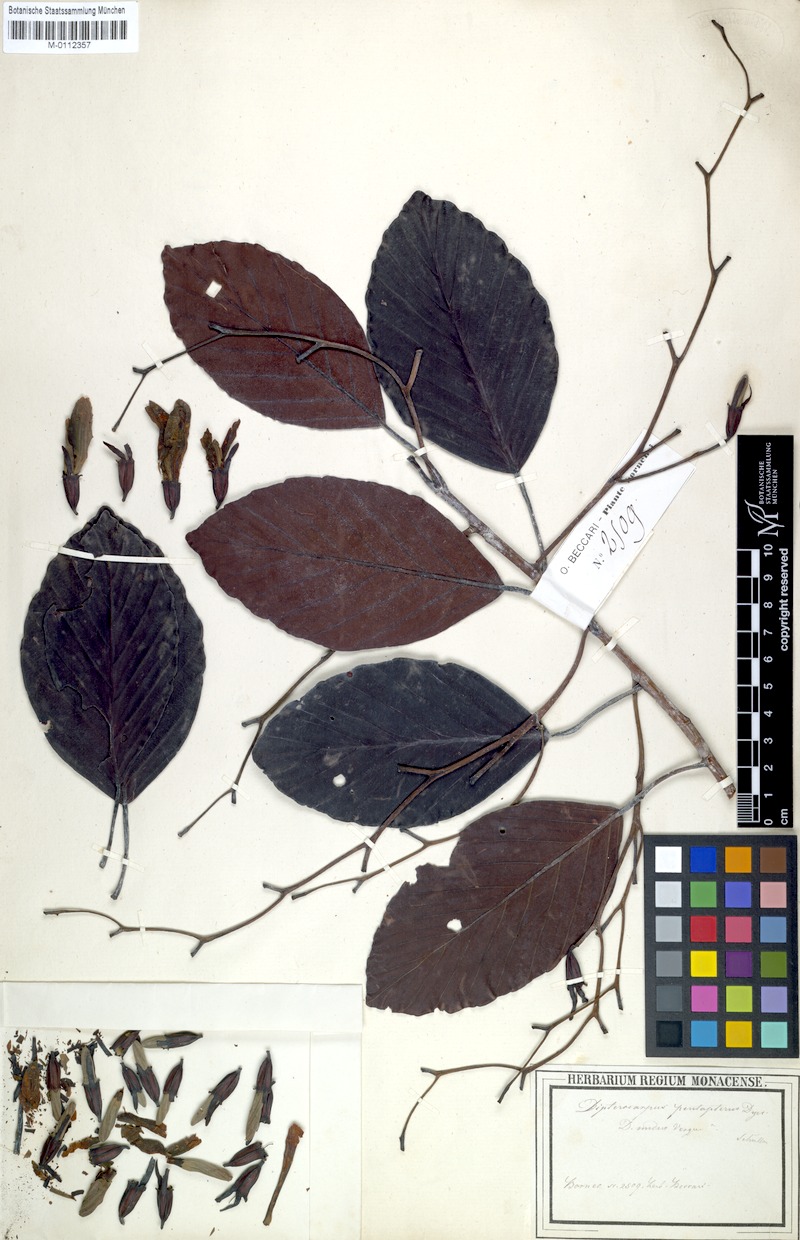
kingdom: Plantae
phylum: Tracheophyta
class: Magnoliopsida
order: Malvales
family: Dipterocarpaceae
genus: Dipterocarpus
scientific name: Dipterocarpus nudus
